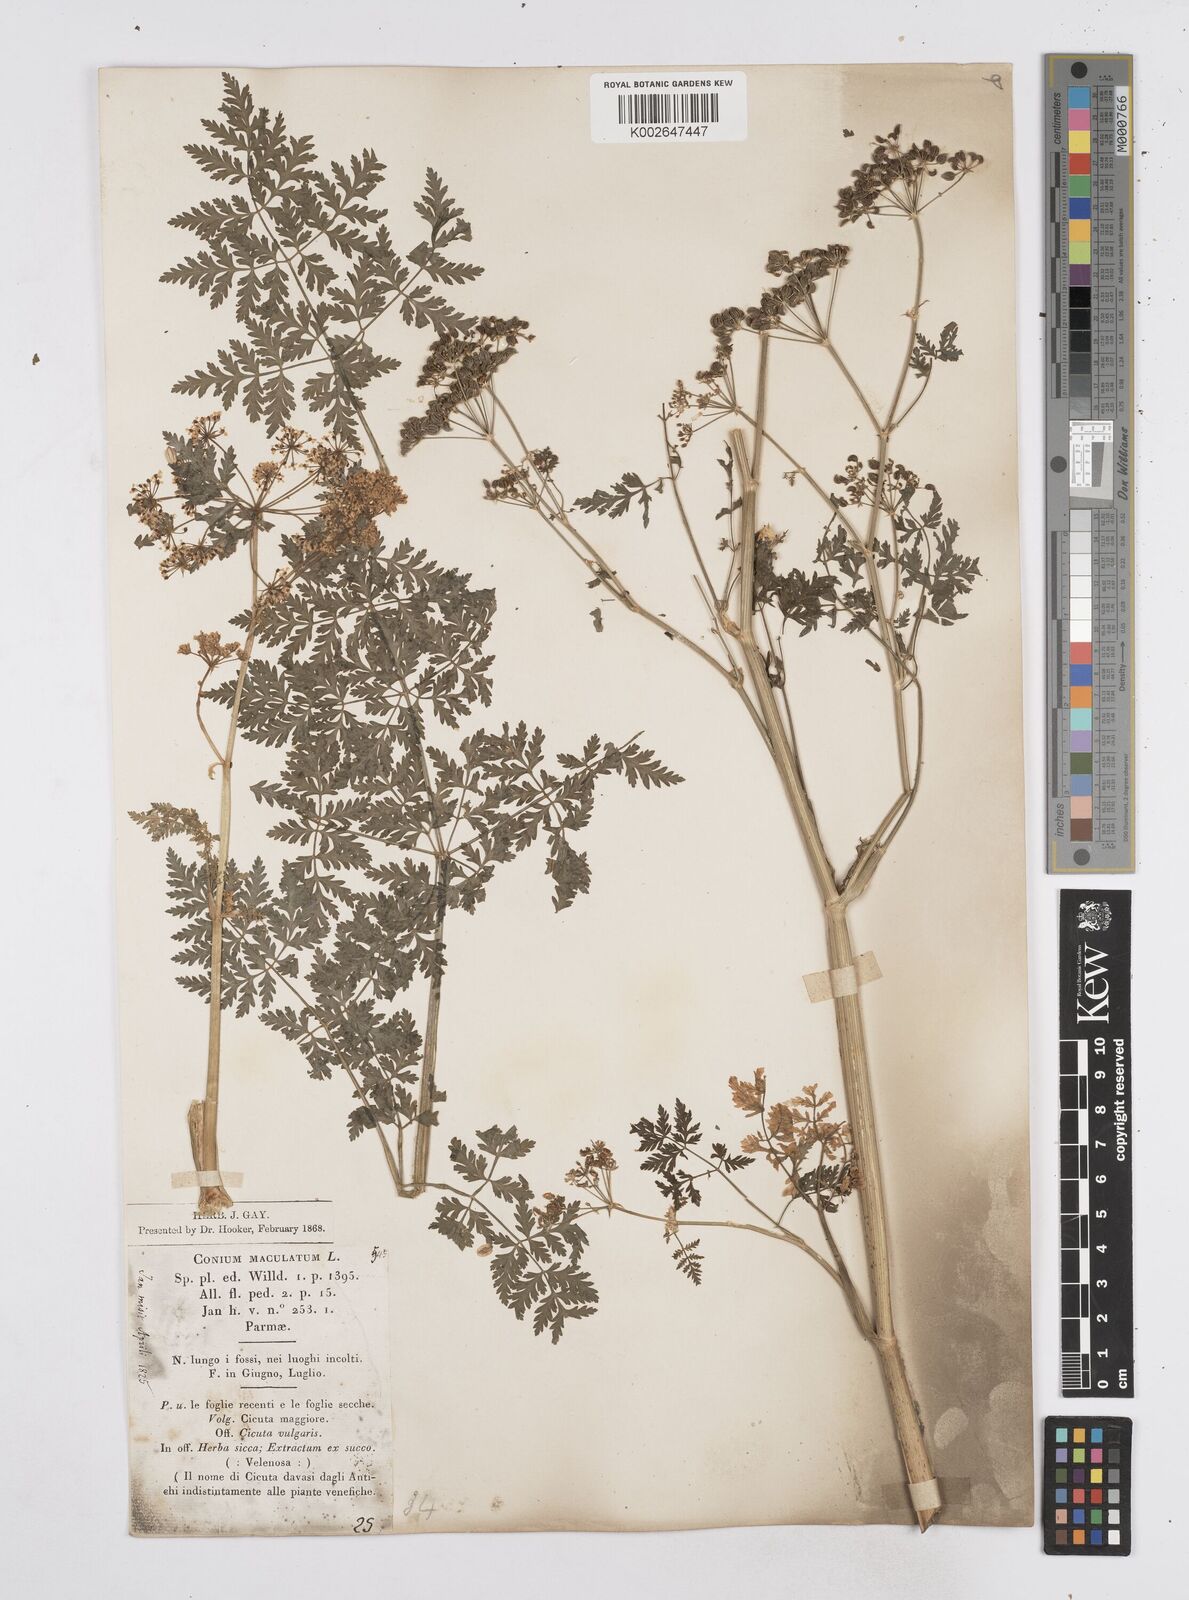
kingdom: Plantae
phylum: Tracheophyta
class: Magnoliopsida
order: Apiales
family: Apiaceae
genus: Conium
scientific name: Conium maculatum
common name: Hemlock
